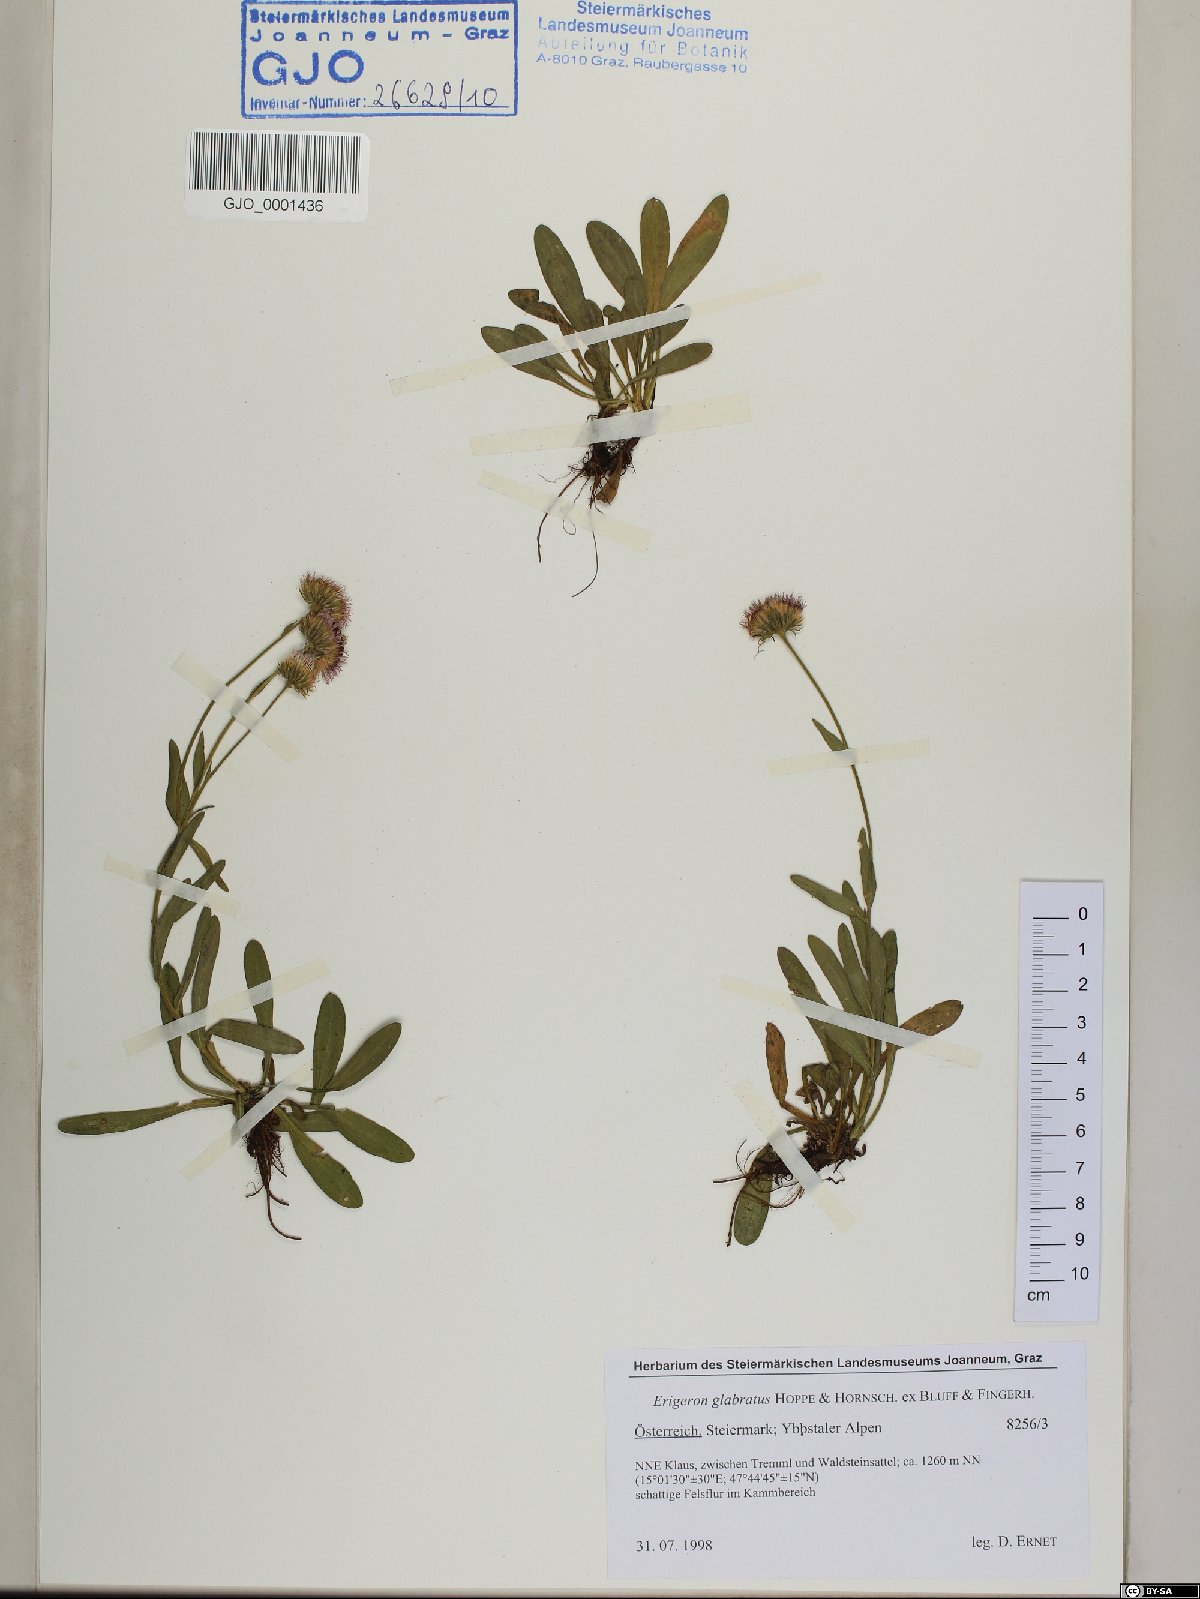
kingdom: Plantae
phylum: Tracheophyta
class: Magnoliopsida
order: Asterales
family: Asteraceae
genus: Erigeron
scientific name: Erigeron glabratus
